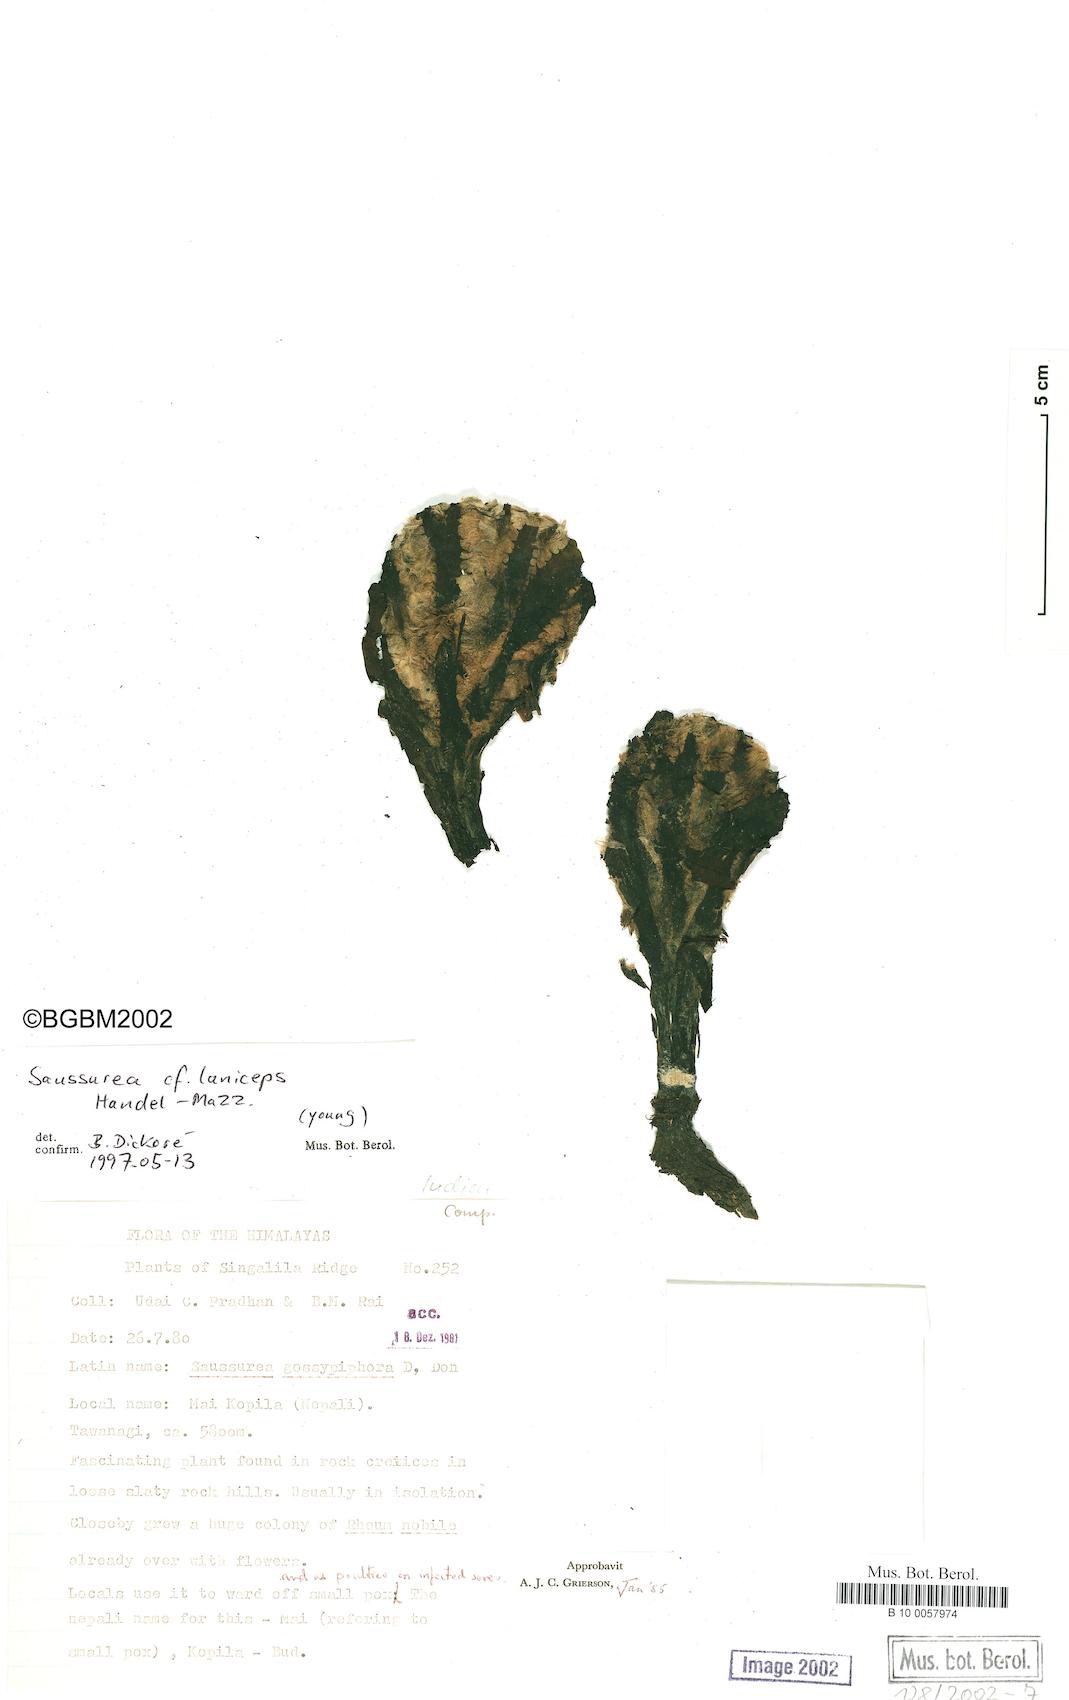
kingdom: Plantae
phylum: Tracheophyta
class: Magnoliopsida
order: Asterales
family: Asteraceae
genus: Saussurea
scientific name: Saussurea laniceps
